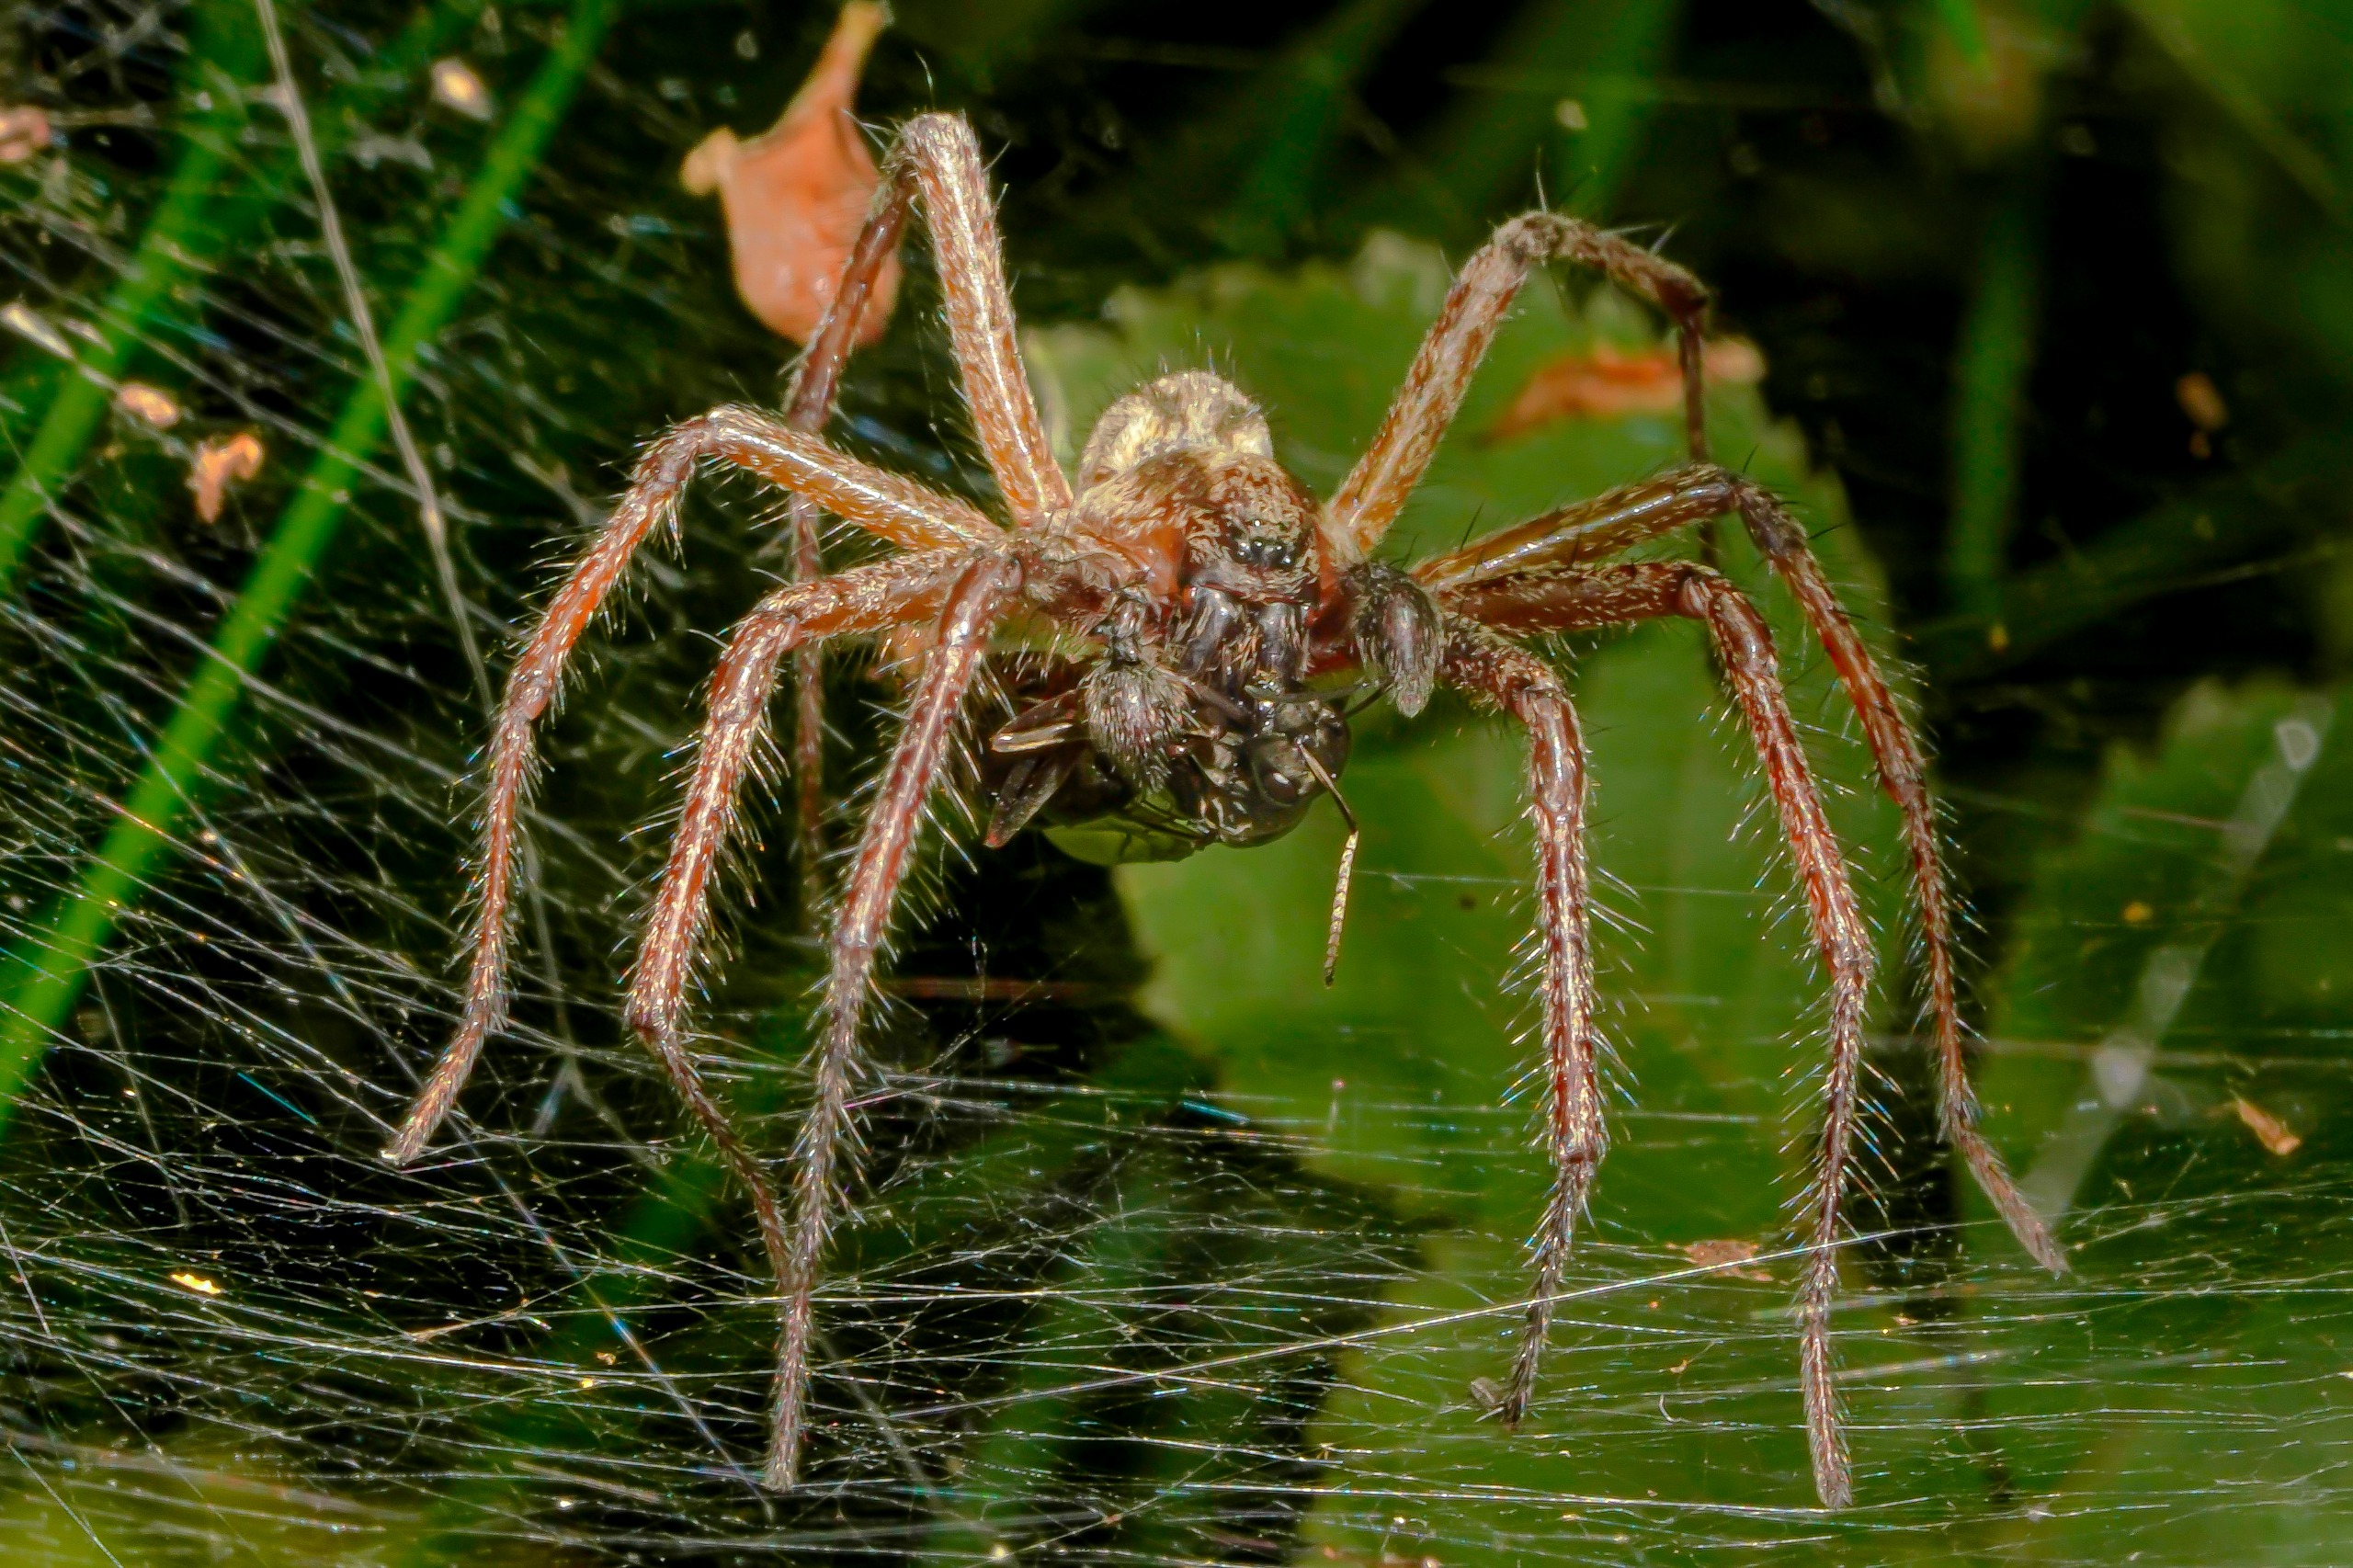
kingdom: Animalia
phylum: Arthropoda
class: Arachnida
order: Araneae
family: Agelenidae
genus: Agelena
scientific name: Agelena labyrinthica
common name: Labyrintedderkop
